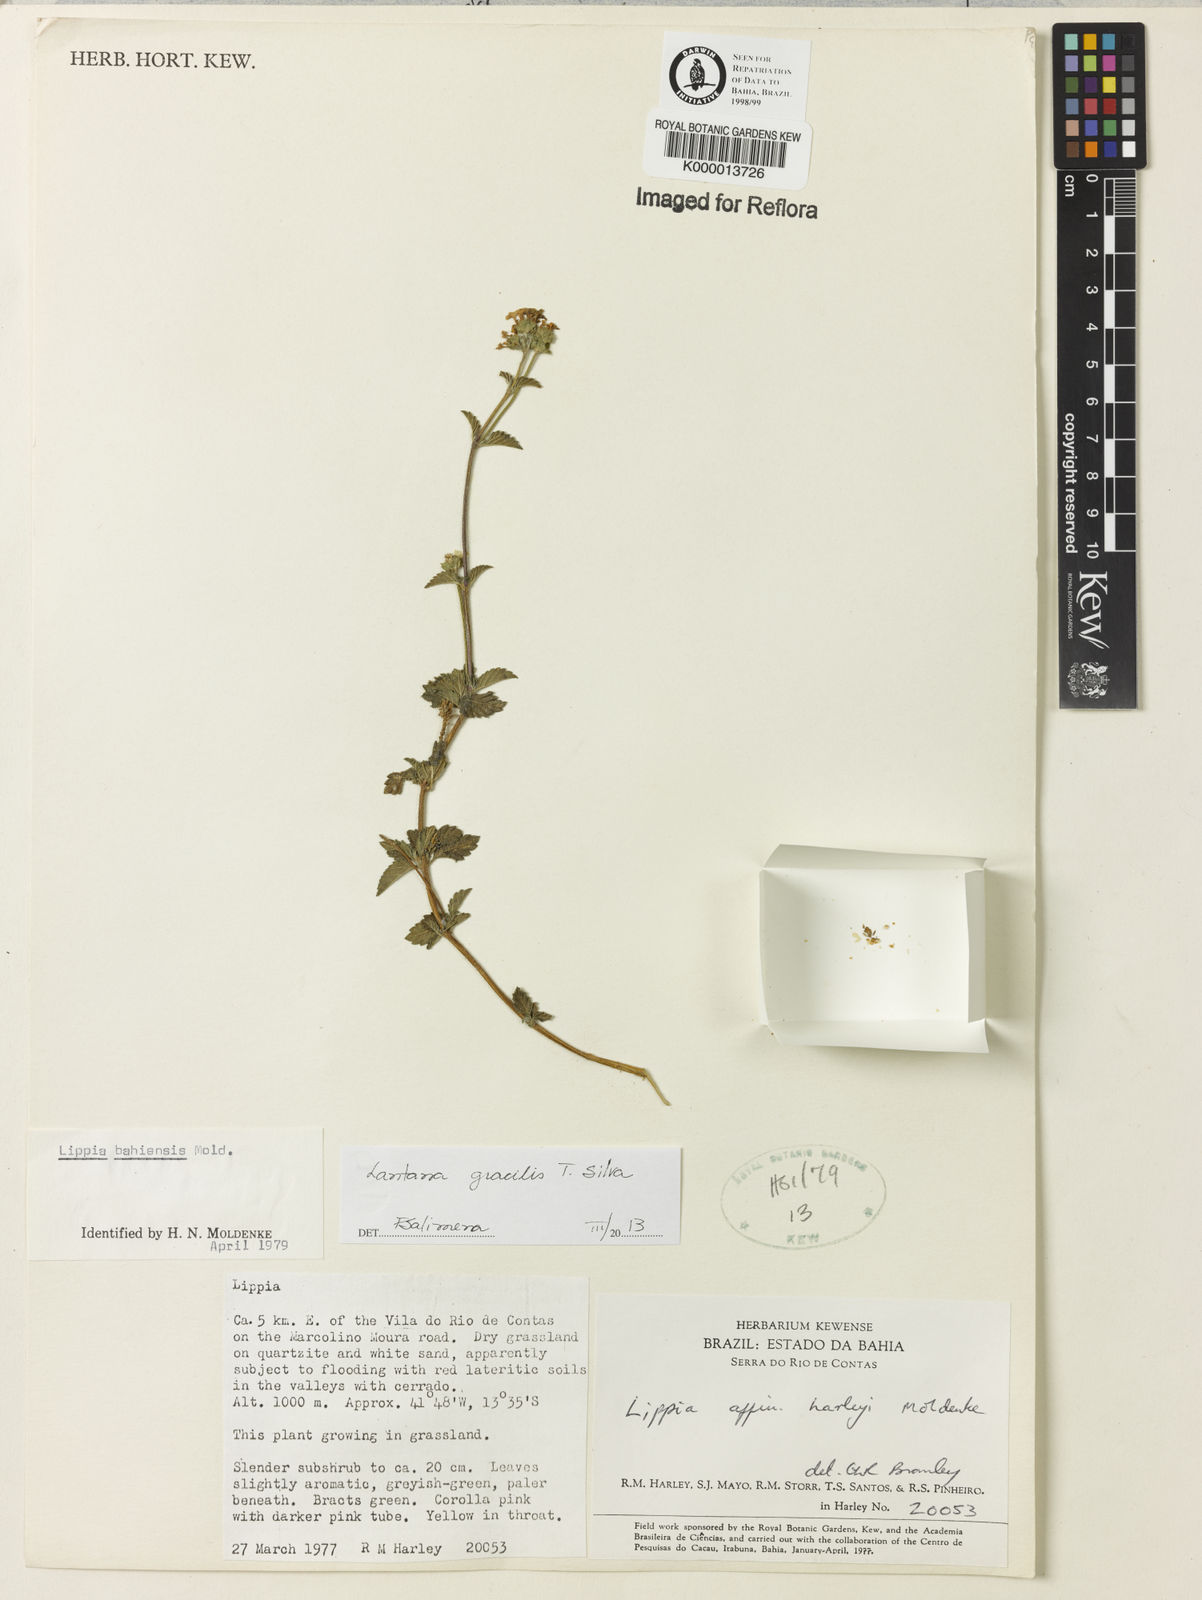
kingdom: Plantae
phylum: Tracheophyta
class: Magnoliopsida
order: Lamiales
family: Verbenaceae
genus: Lantana
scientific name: Lantana gracilis
